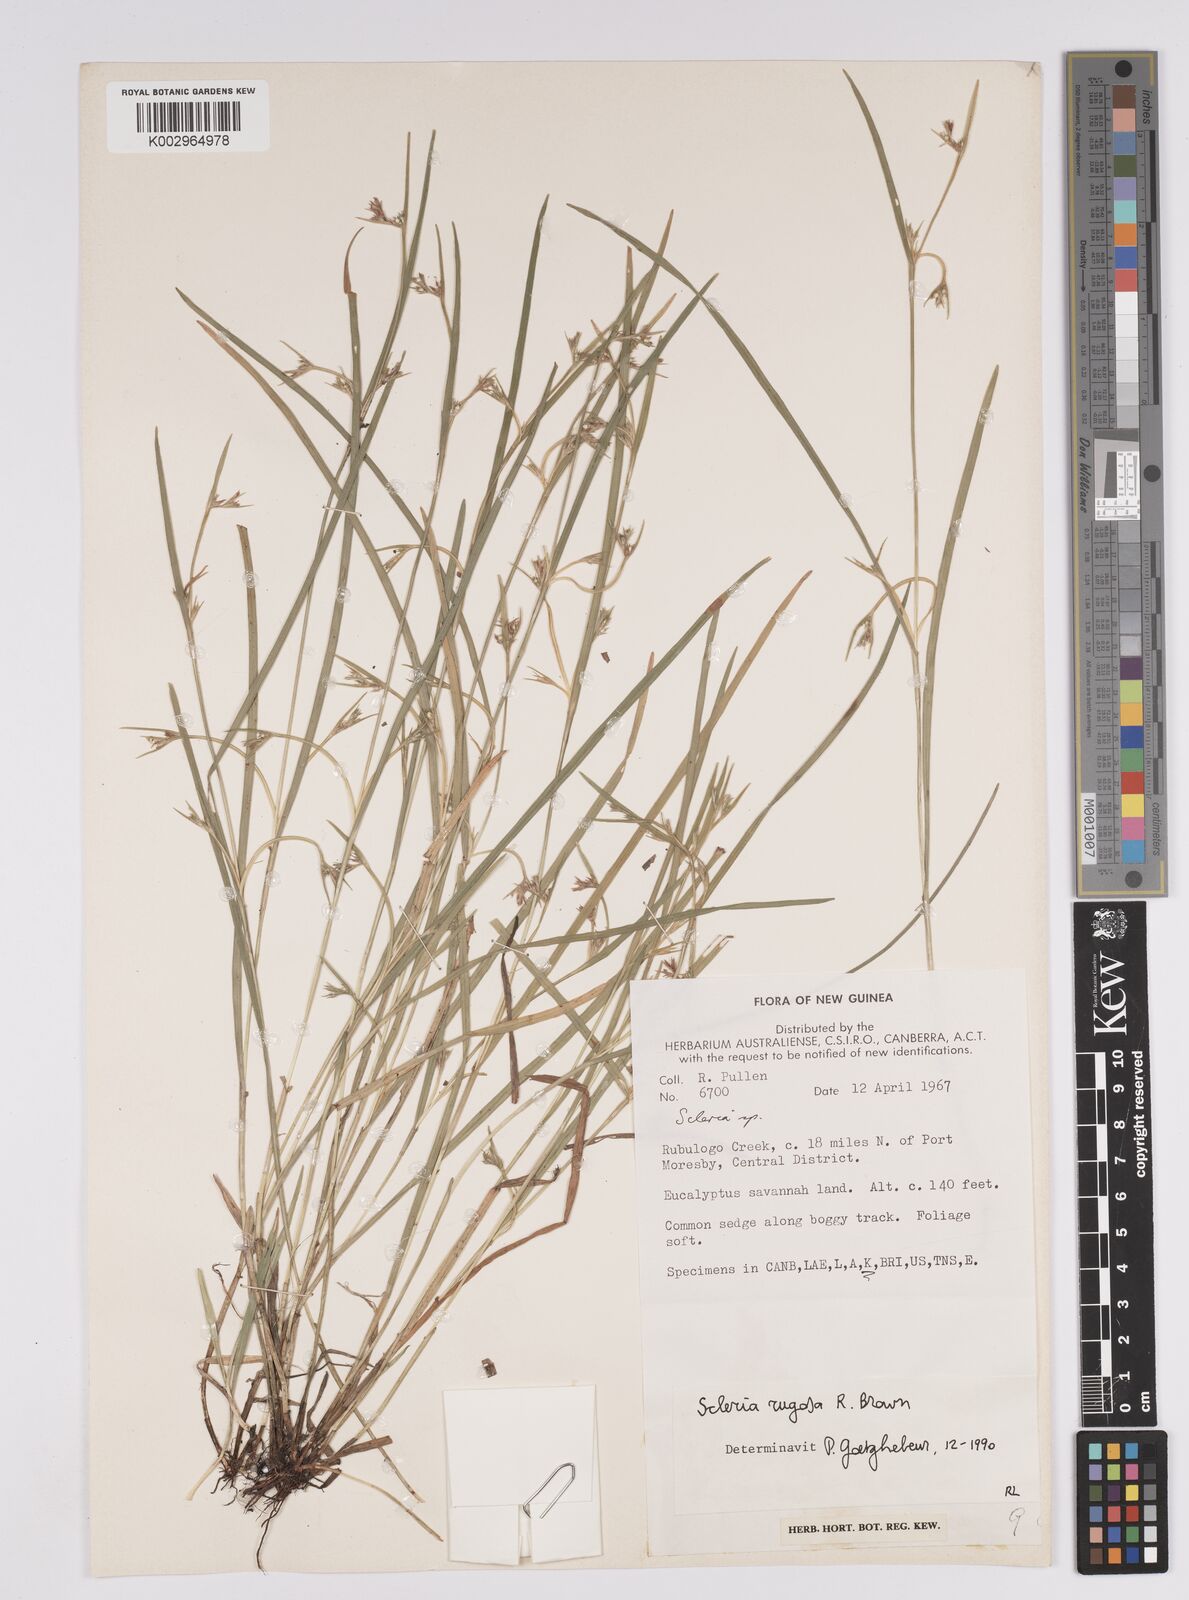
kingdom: Plantae
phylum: Tracheophyta
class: Liliopsida
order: Poales
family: Cyperaceae
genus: Scleria
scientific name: Scleria rugosa
